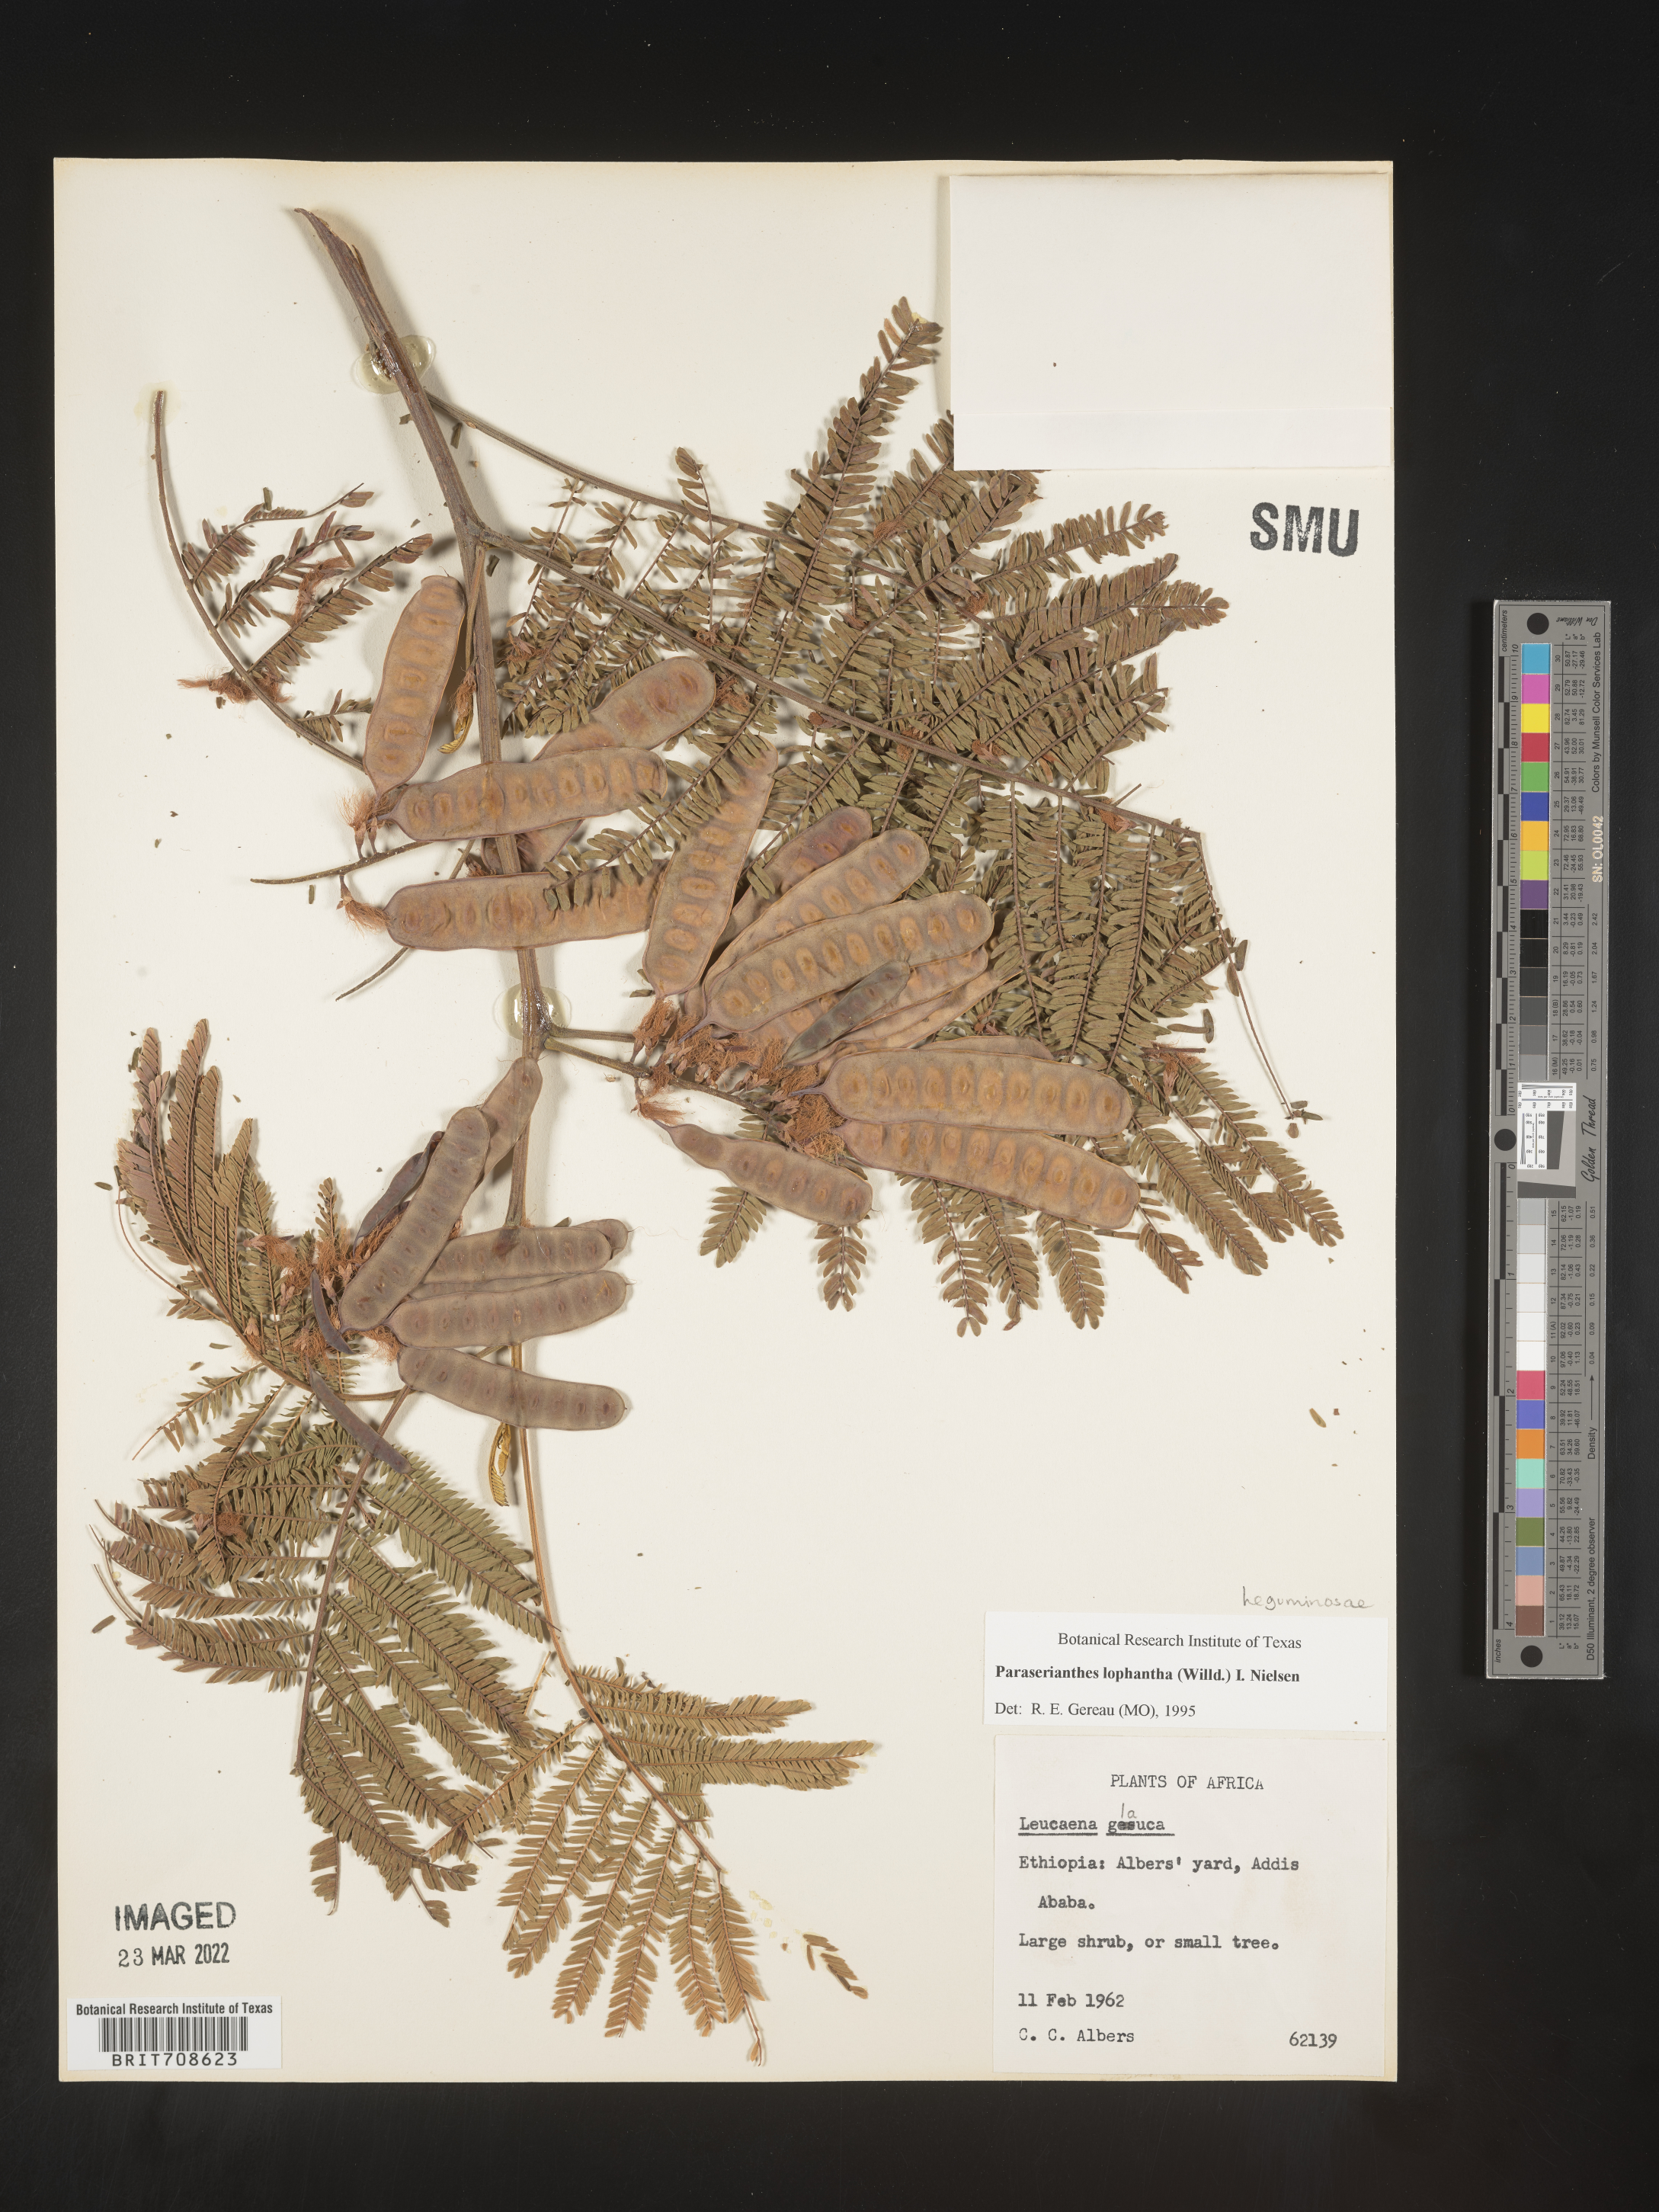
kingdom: Plantae
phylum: Tracheophyta
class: Magnoliopsida
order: Fabales
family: Fabaceae
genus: Paraserianthes
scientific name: Paraserianthes
